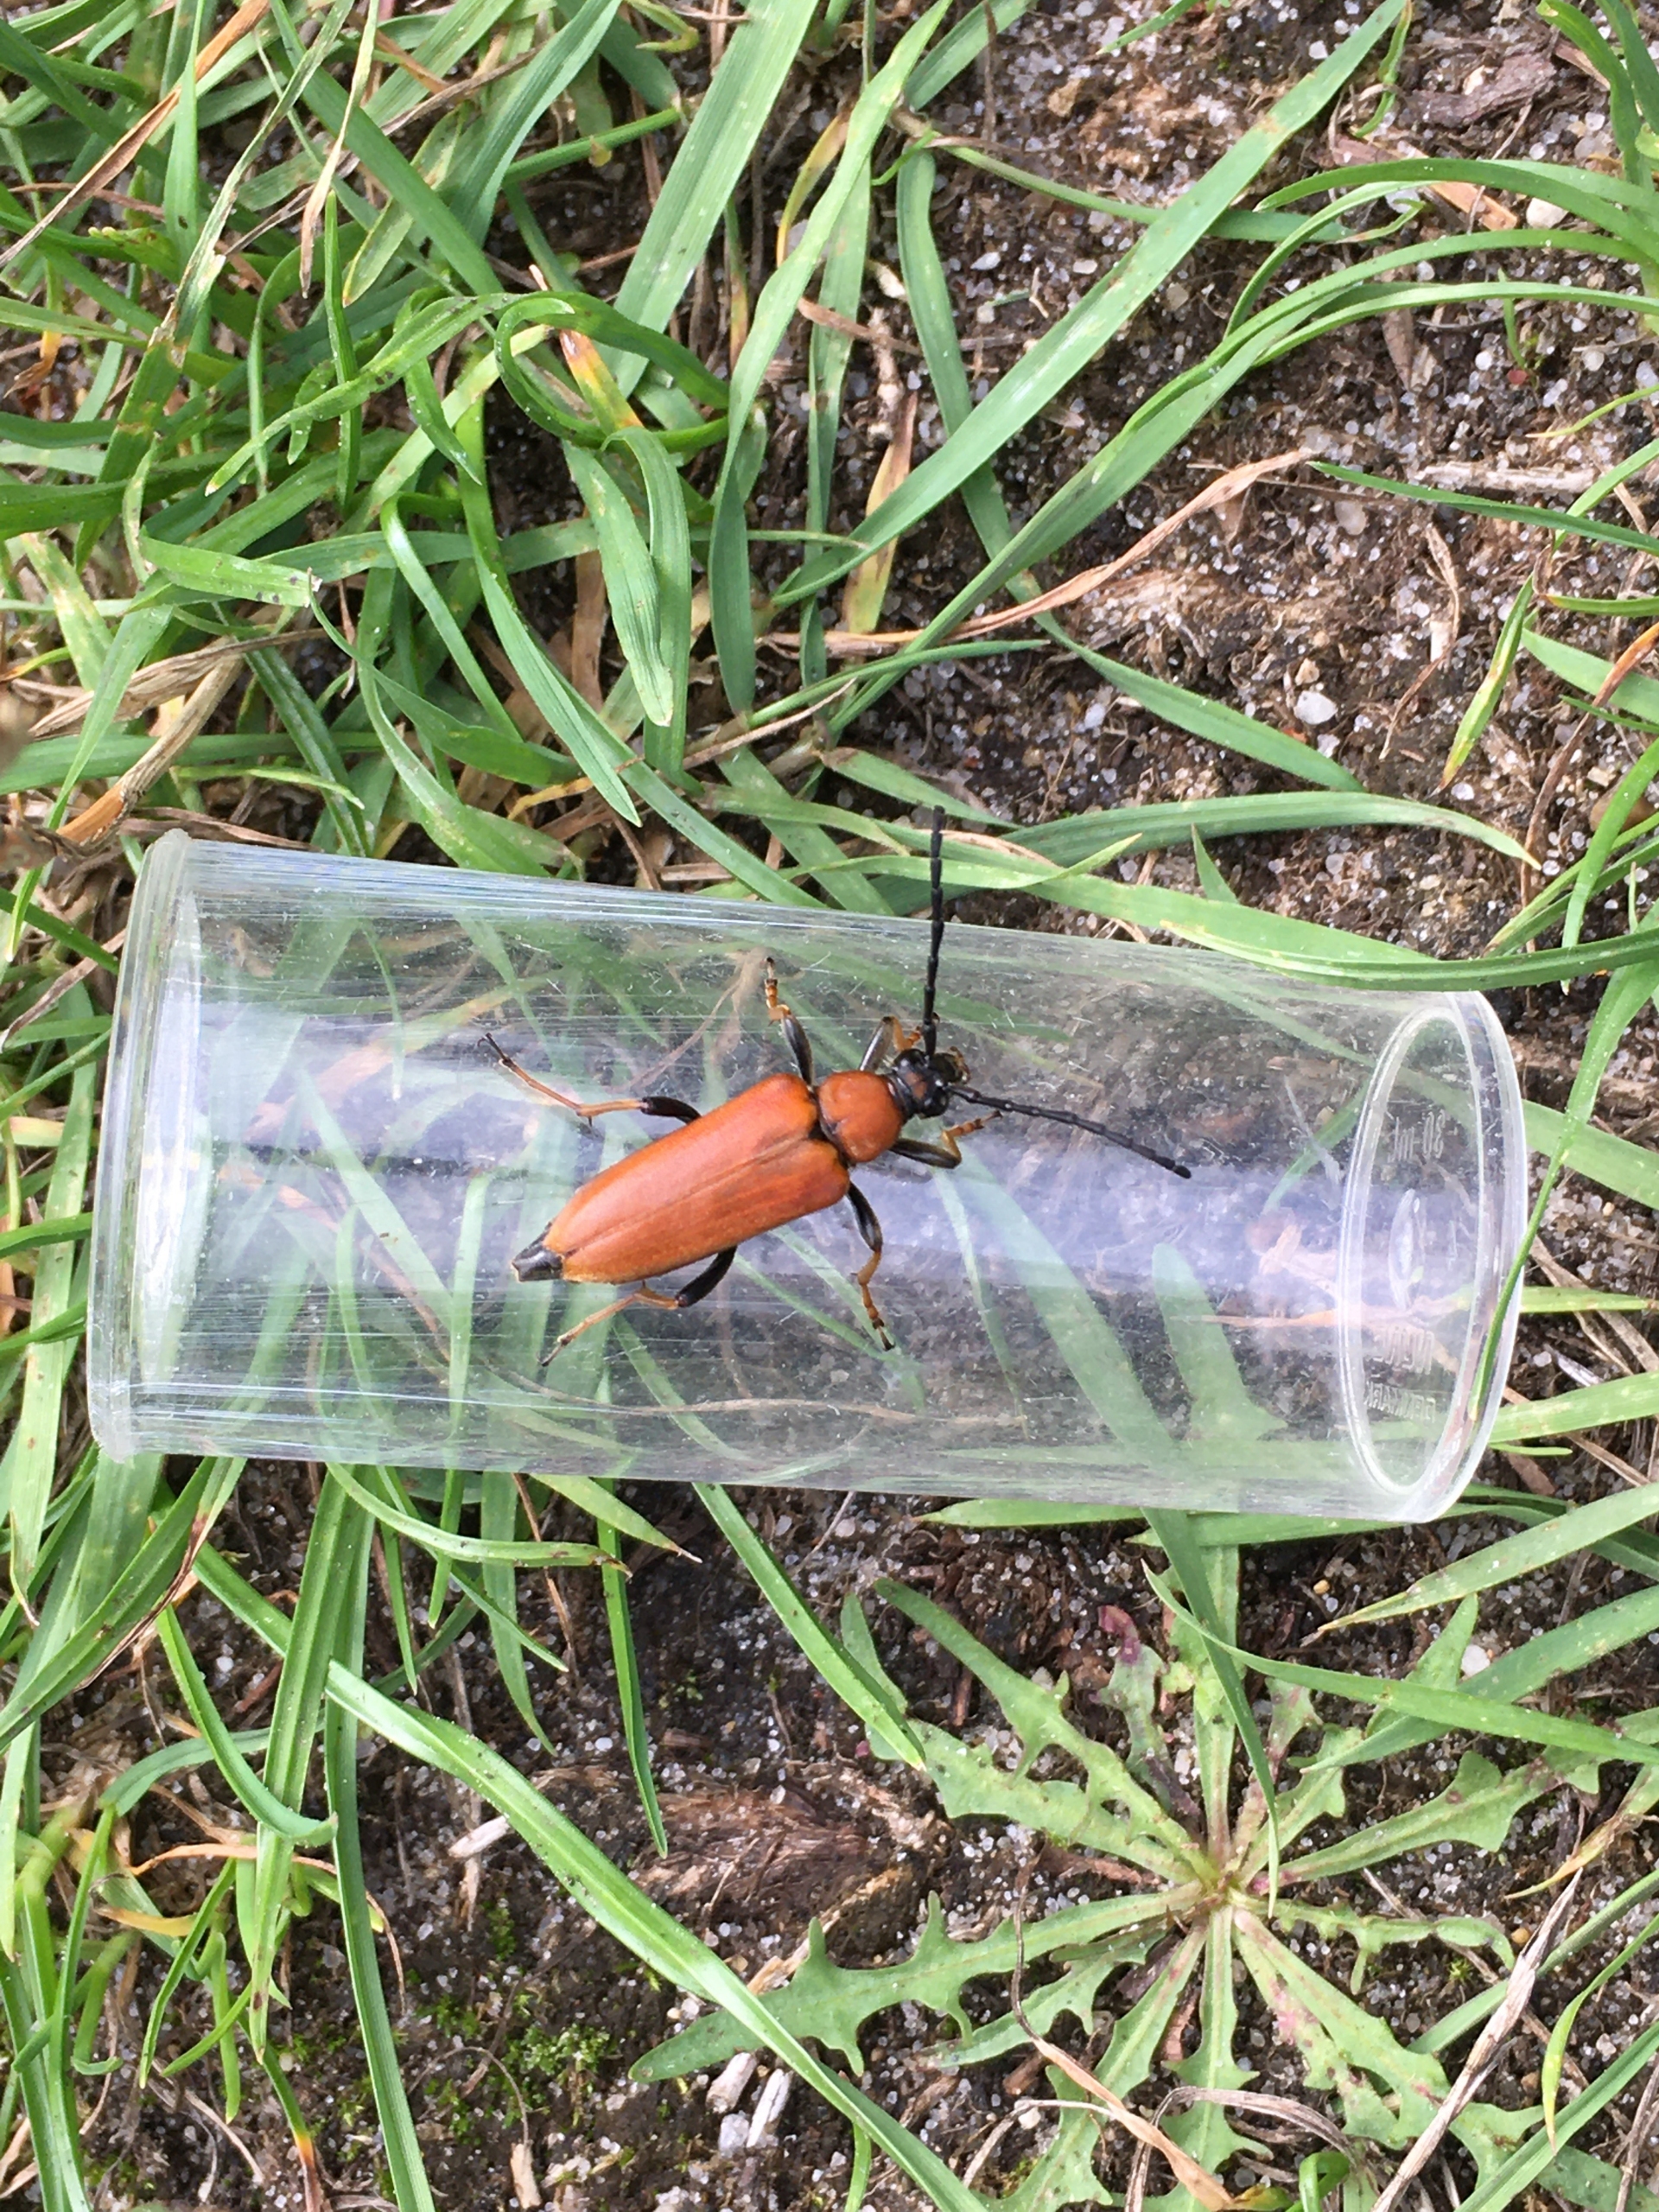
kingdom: Animalia
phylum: Arthropoda
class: Insecta
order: Coleoptera
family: Cerambycidae
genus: Stictoleptura
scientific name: Stictoleptura rubra
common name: Rød blomsterbuk
